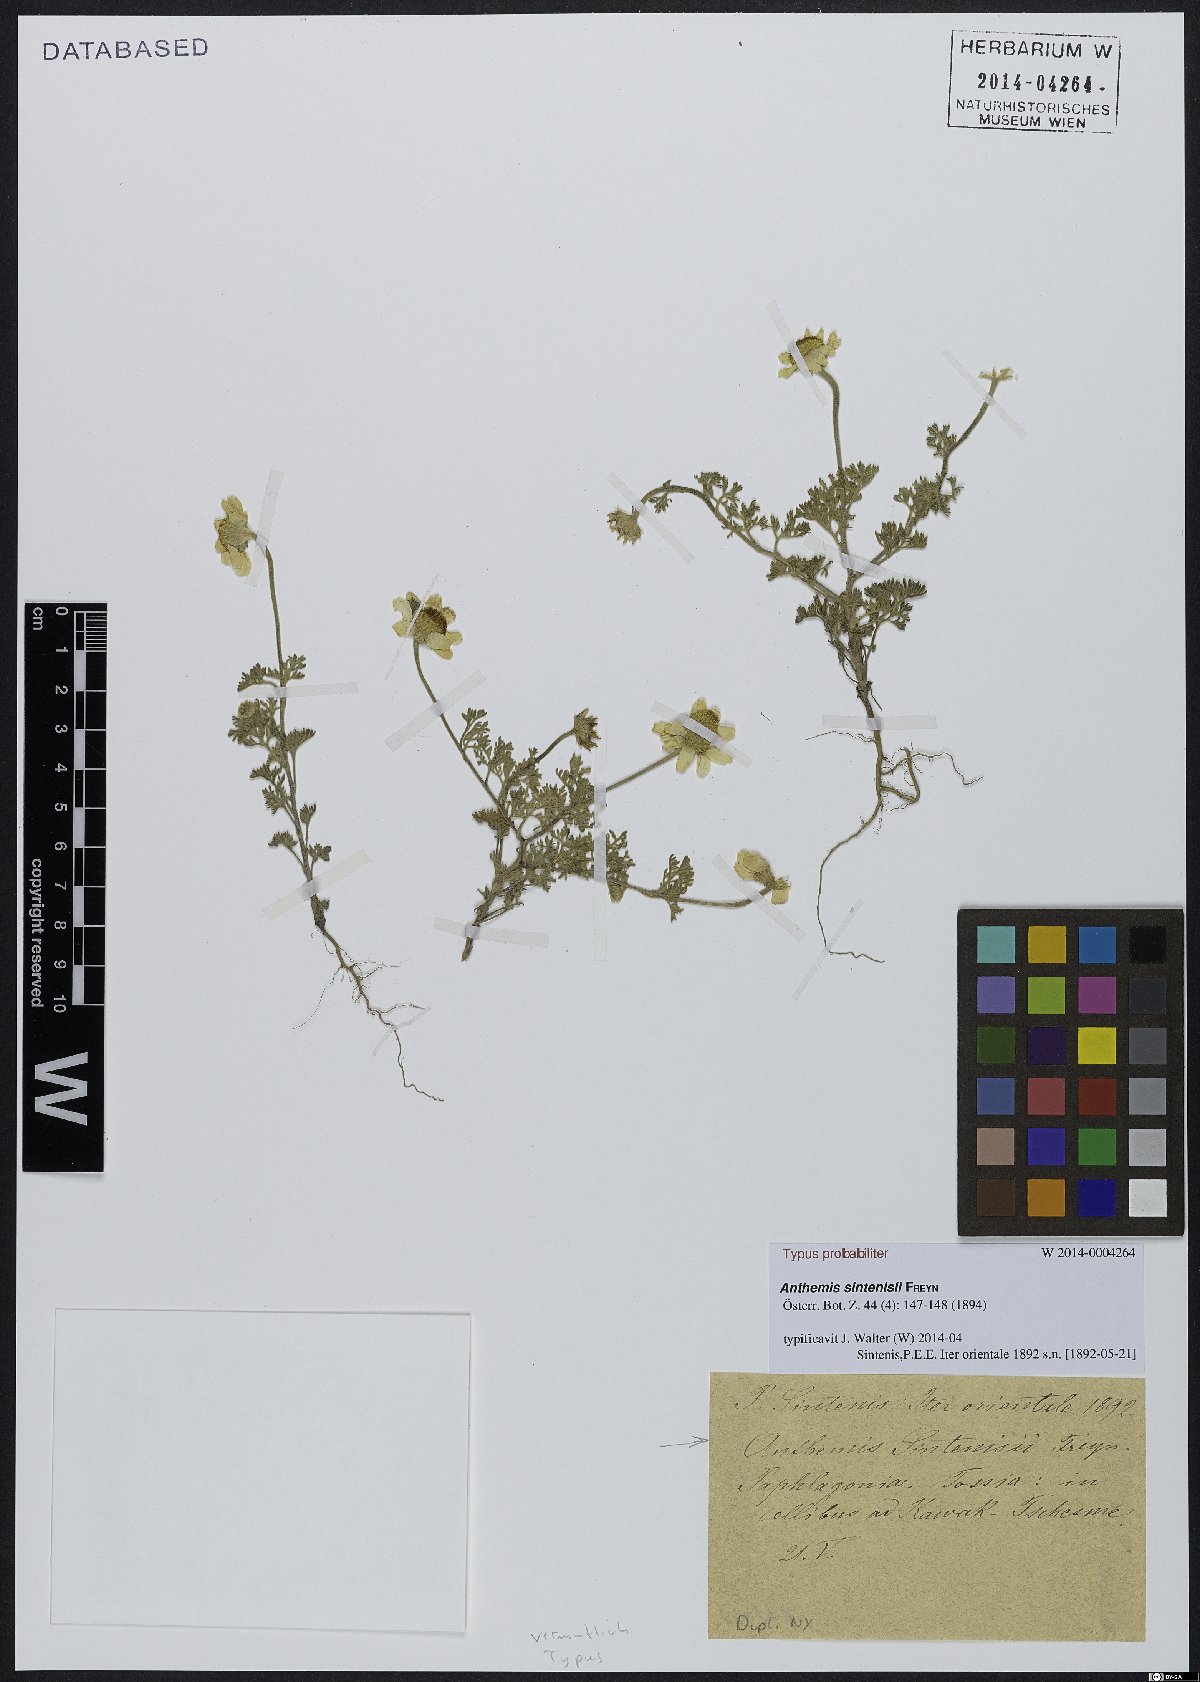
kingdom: Plantae
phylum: Tracheophyta
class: Magnoliopsida
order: Asterales
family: Asteraceae
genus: Anthemis
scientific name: Anthemis sintenisii
